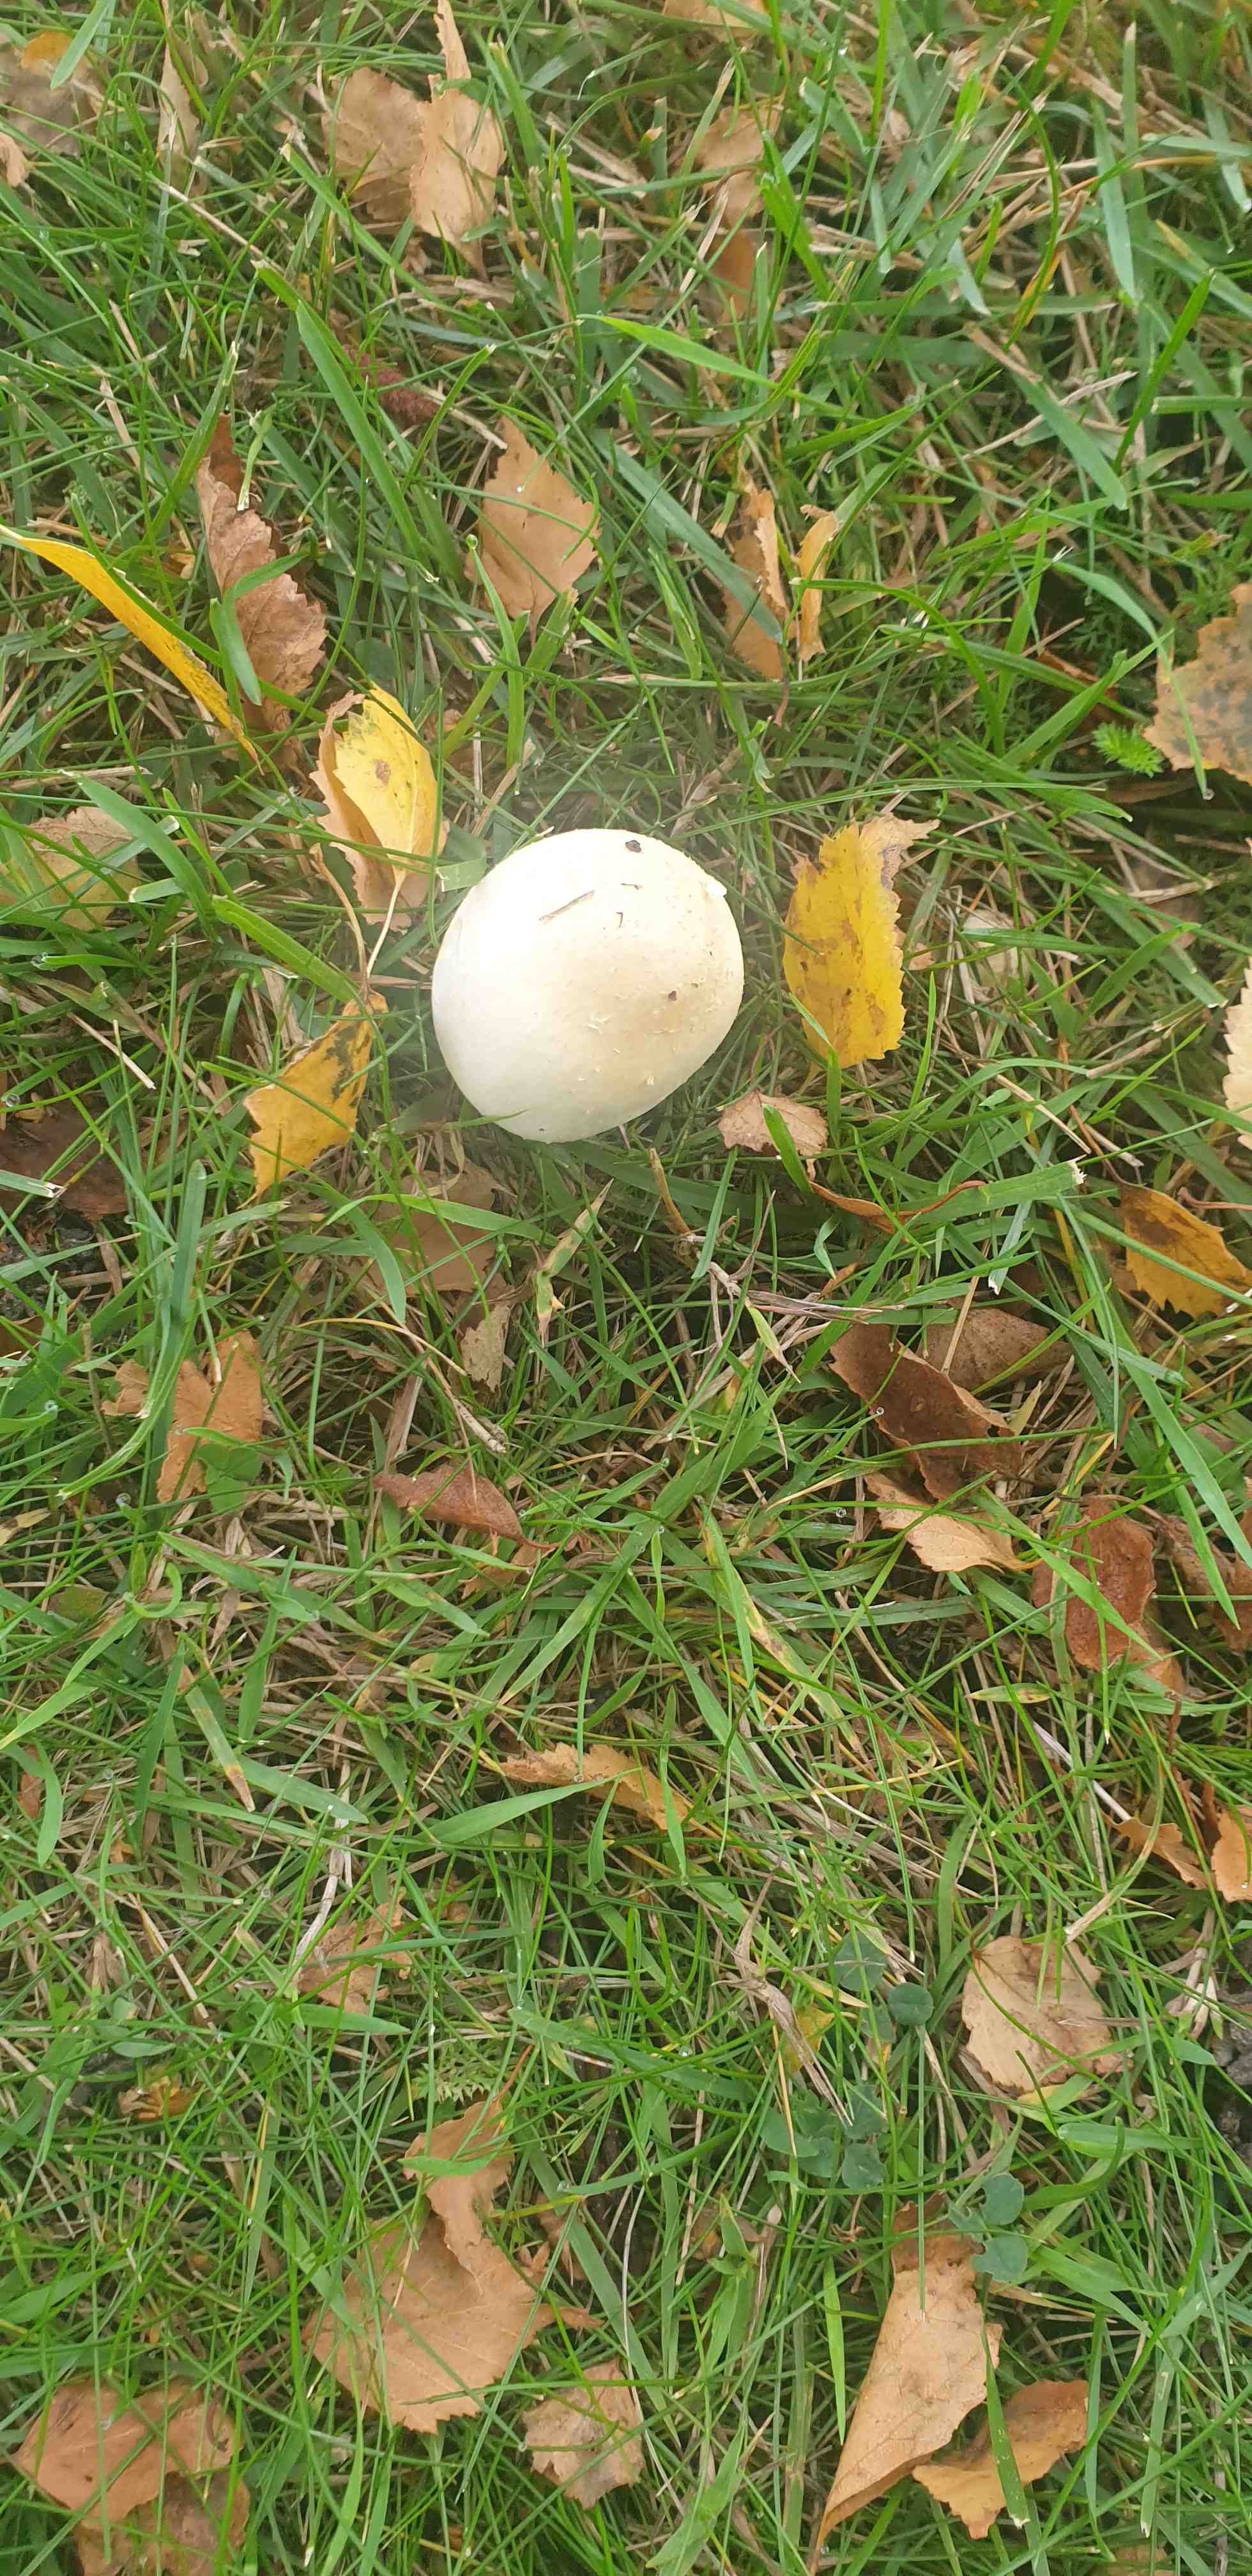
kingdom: Fungi
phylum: Basidiomycota
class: Agaricomycetes
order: Agaricales
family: Agaricaceae
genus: Agaricus
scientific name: Agaricus
